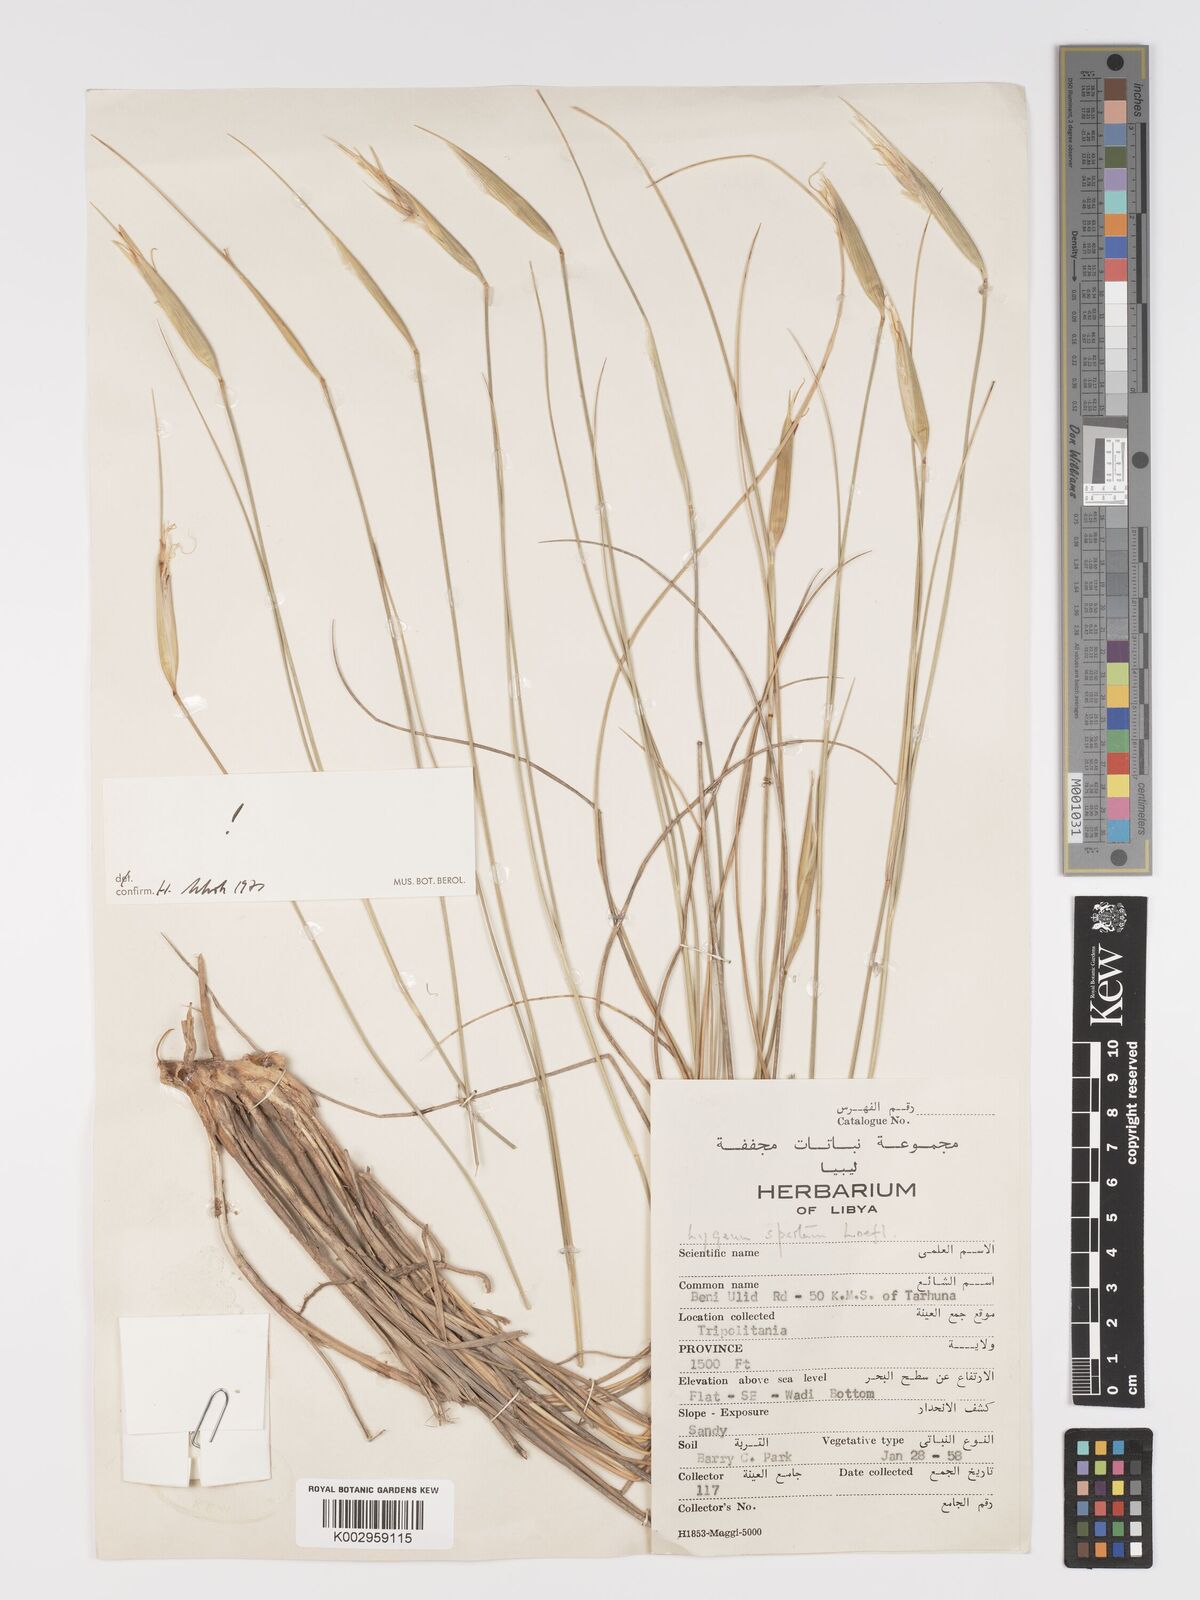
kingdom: Plantae
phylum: Tracheophyta
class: Liliopsida
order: Poales
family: Poaceae
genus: Lygeum
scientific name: Lygeum spartum
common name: Albardine
